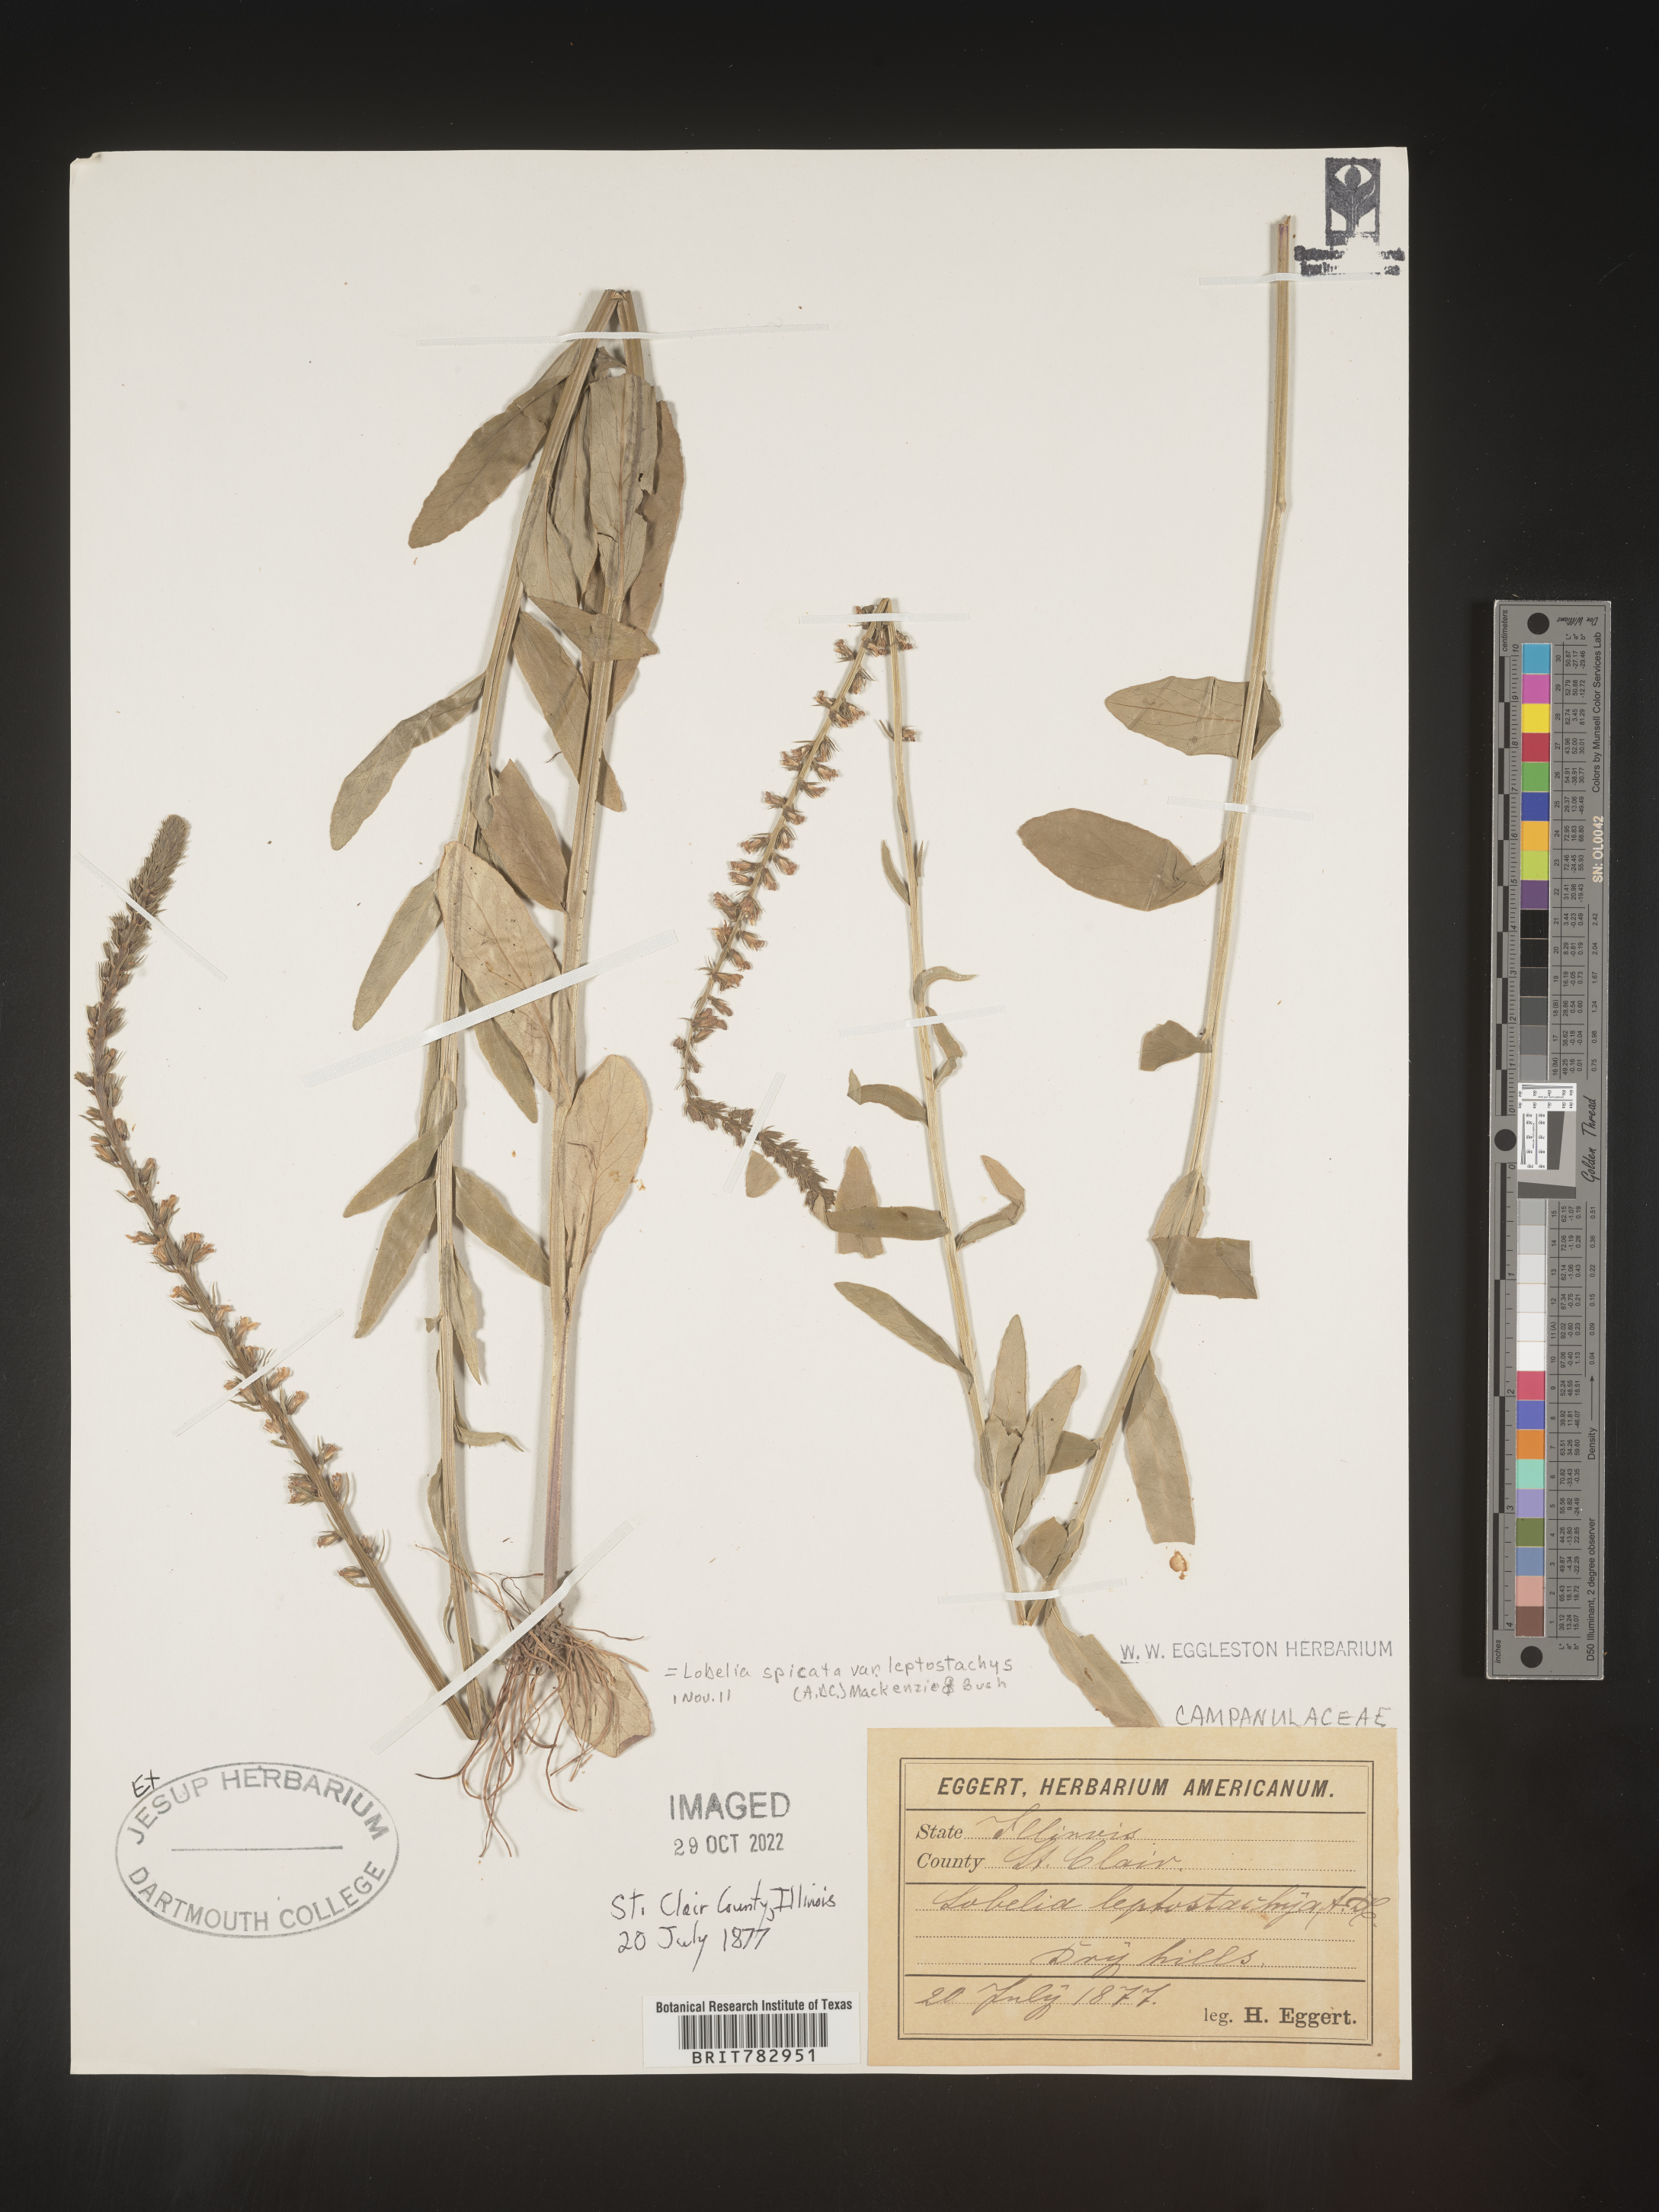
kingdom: Plantae
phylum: Tracheophyta
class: Magnoliopsida
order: Asterales
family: Campanulaceae
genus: Lobelia
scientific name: Lobelia spicata
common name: Pale-spike lobelia
